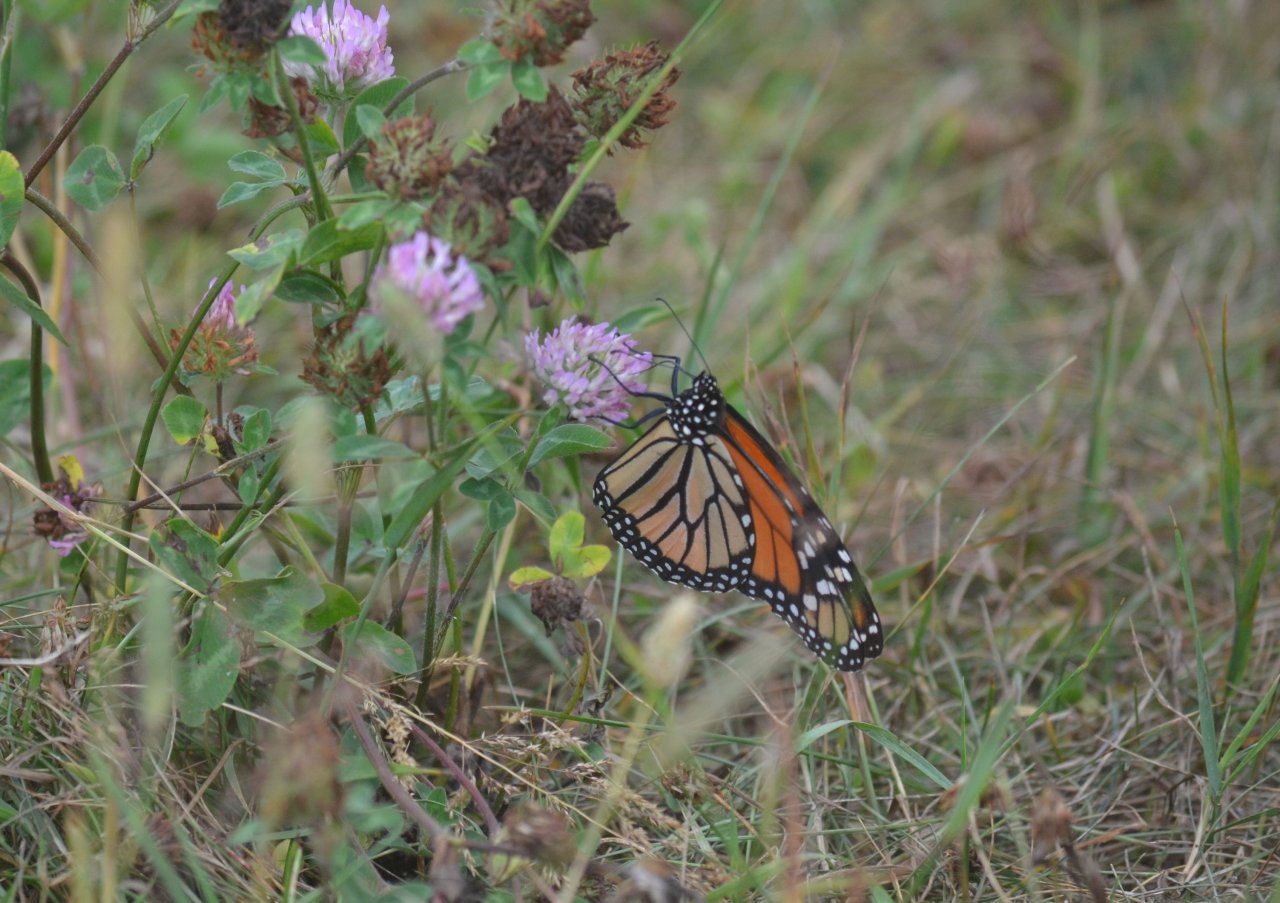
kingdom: Animalia
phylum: Arthropoda
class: Insecta
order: Lepidoptera
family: Nymphalidae
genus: Danaus
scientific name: Danaus plexippus
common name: Monarch
